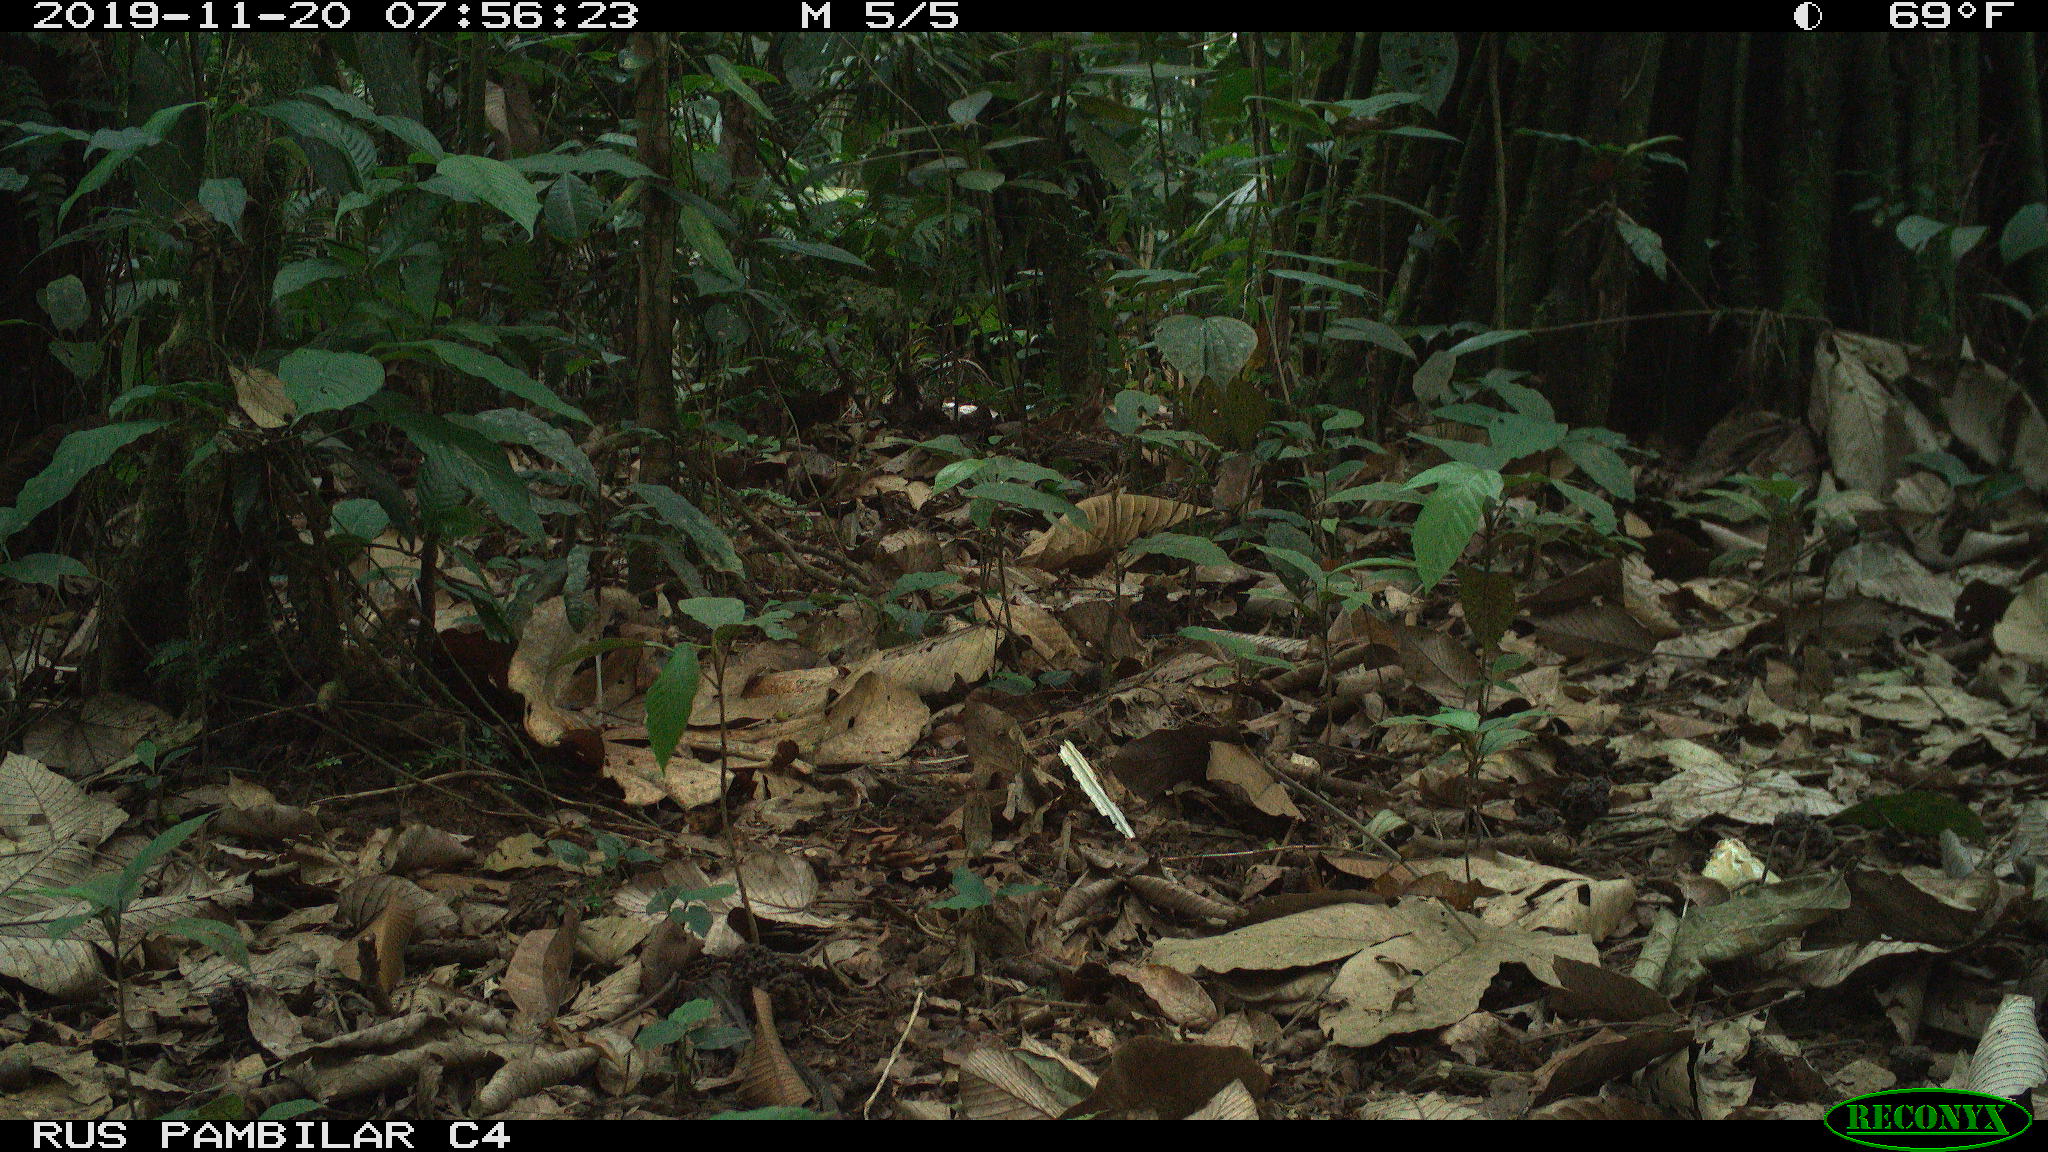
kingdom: Animalia
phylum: Chordata
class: Mammalia
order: Rodentia
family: Dasyproctidae
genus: Dasyprocta
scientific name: Dasyprocta punctata
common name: Central american agouti
